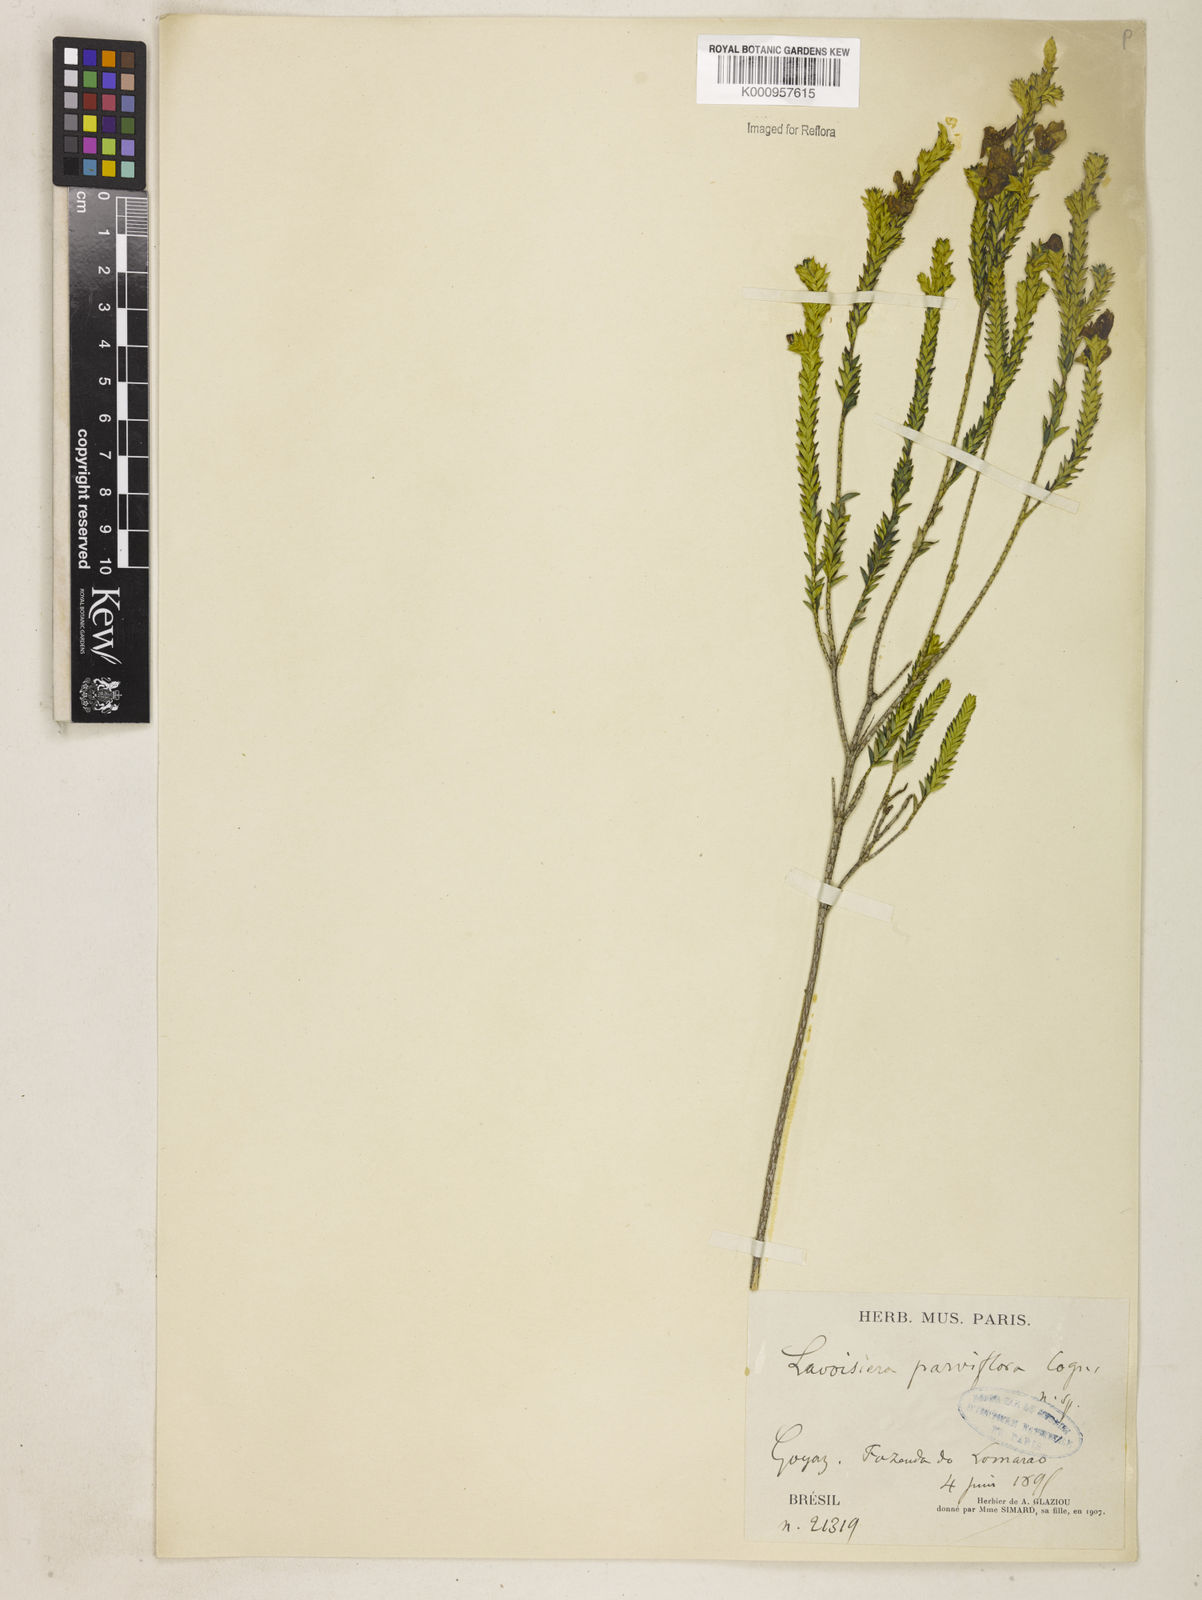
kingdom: Plantae
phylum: Tracheophyta
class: Magnoliopsida
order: Myrtales
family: Melastomataceae
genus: Microlicia
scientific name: Microlicia
